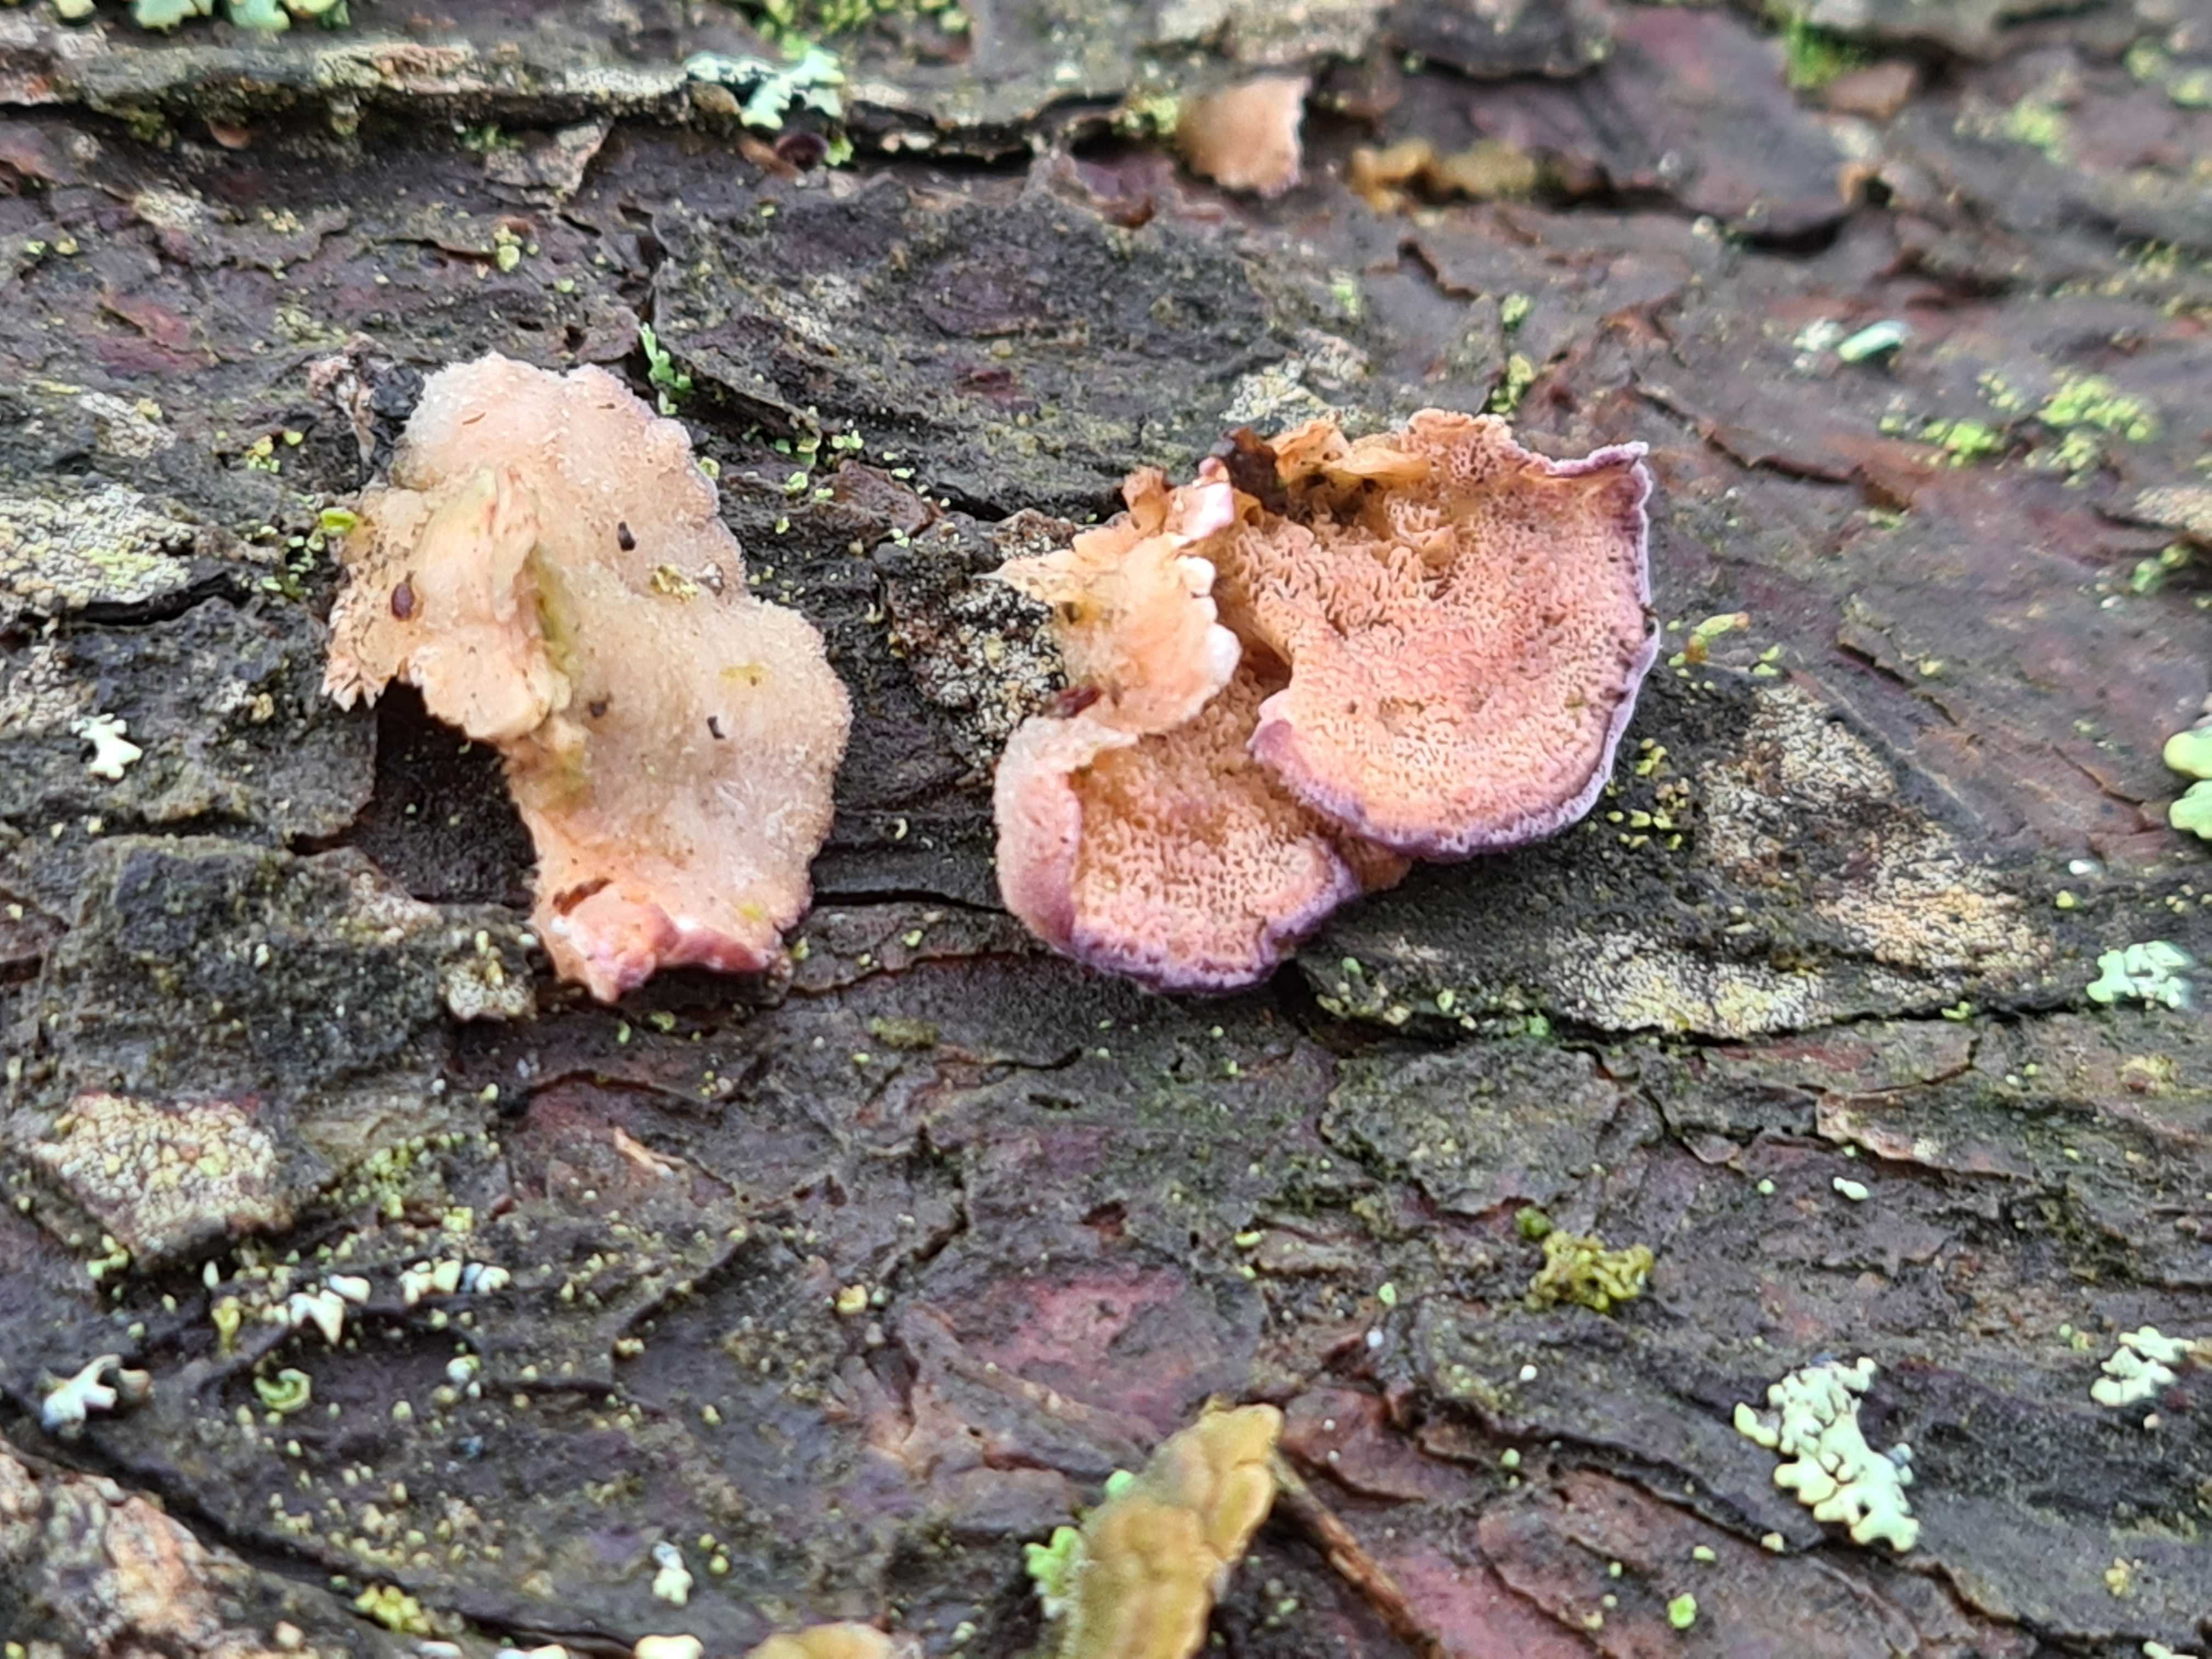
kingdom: Fungi
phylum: Basidiomycota
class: Agaricomycetes
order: Hymenochaetales
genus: Trichaptum
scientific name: Trichaptum abietinum
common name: almindelig violporesvamp
